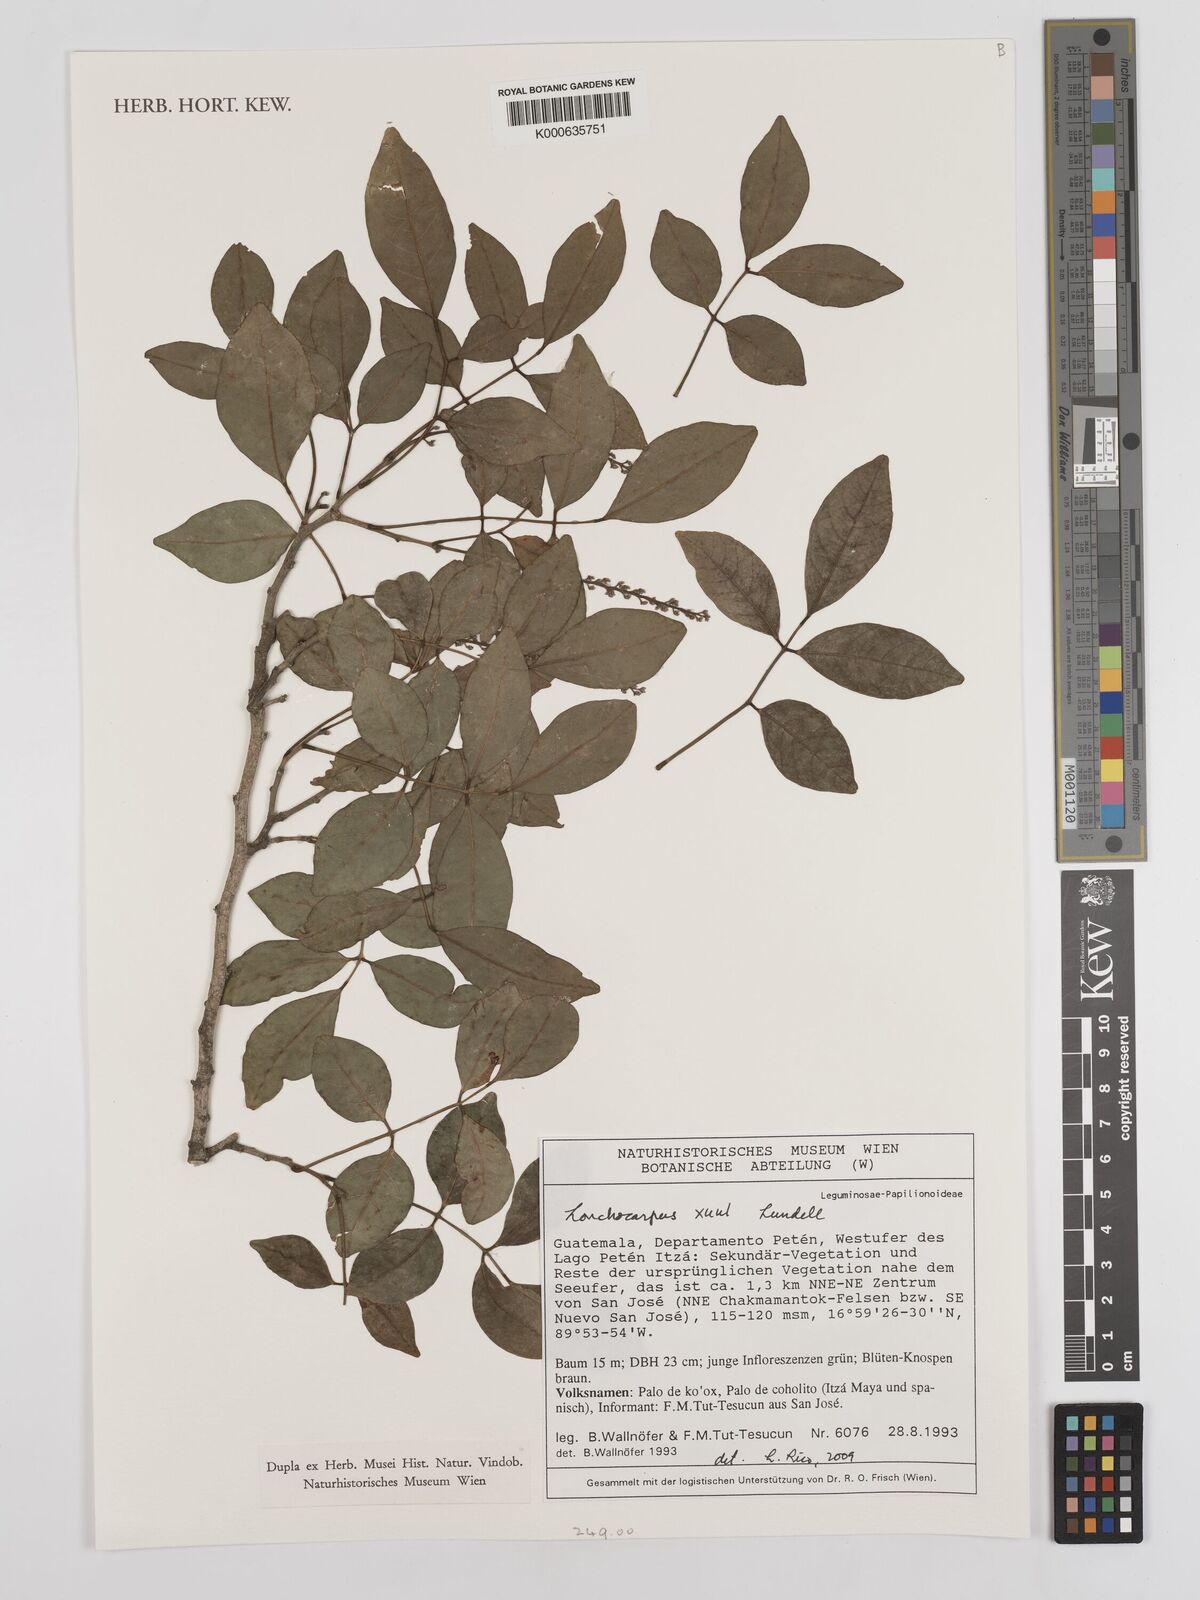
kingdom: Plantae
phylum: Tracheophyta
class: Magnoliopsida
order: Fabales
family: Fabaceae
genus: Lonchocarpus
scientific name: Lonchocarpus guatemalensis
